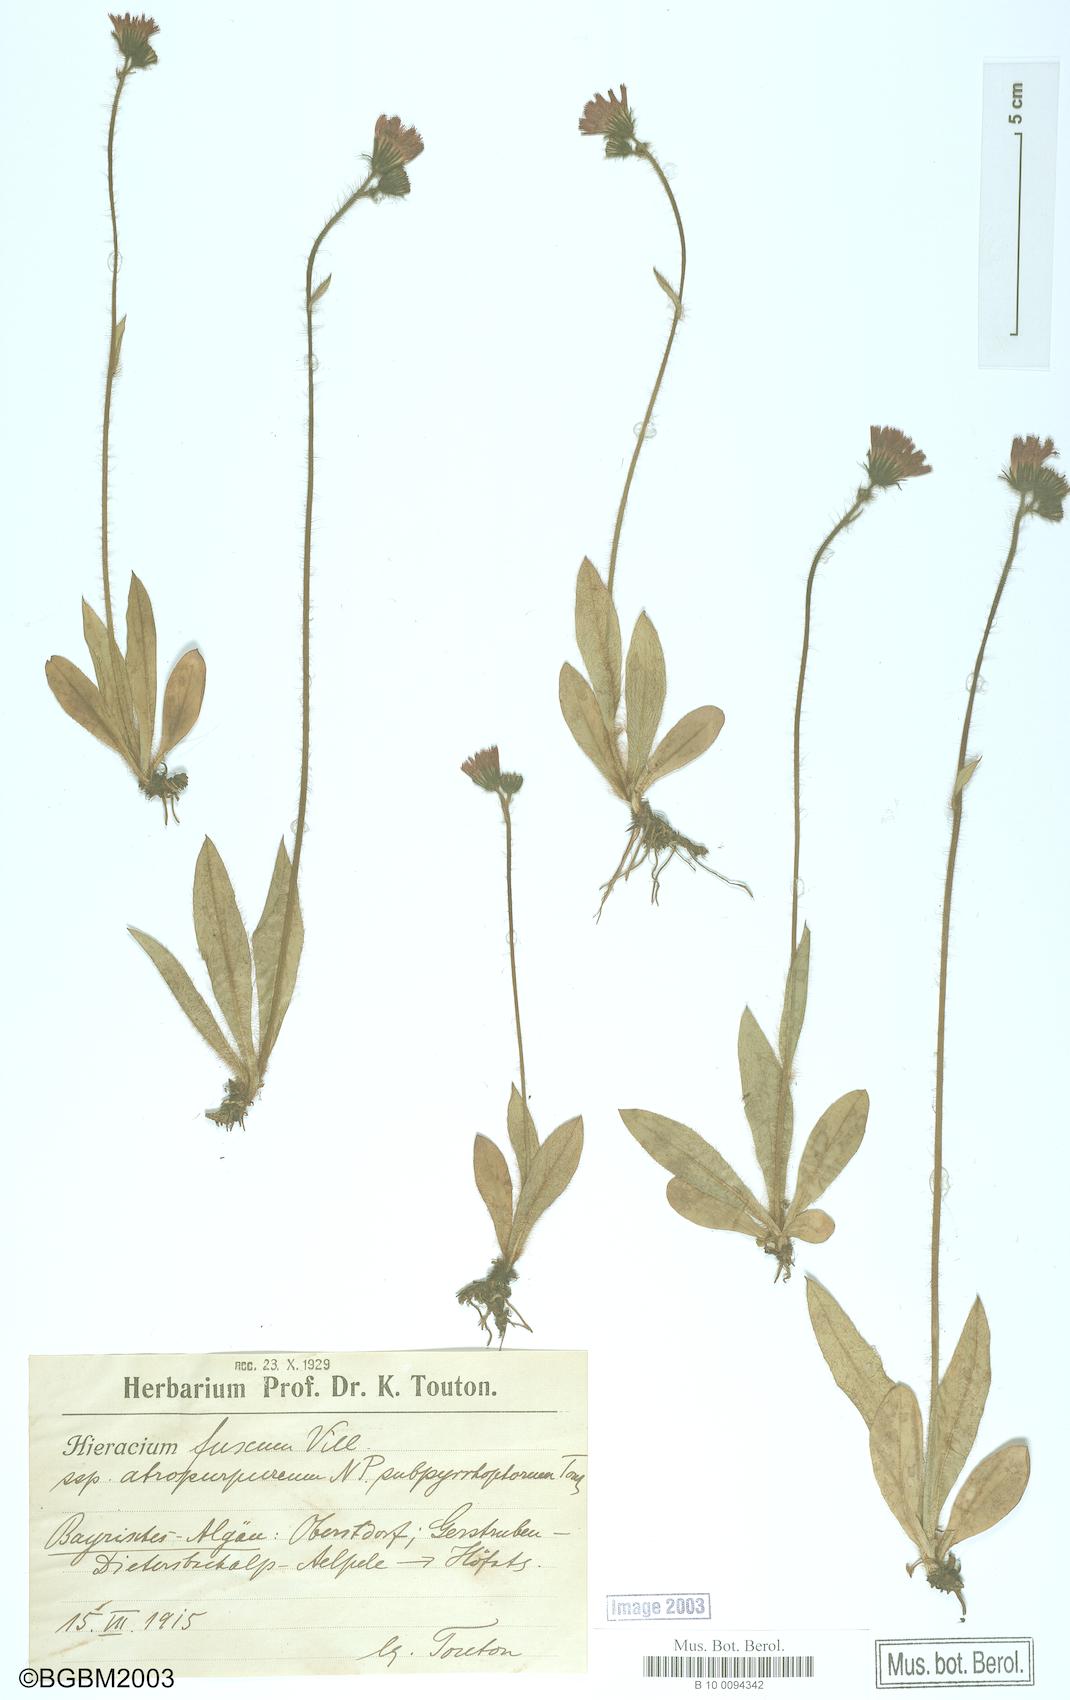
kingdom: Plantae
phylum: Tracheophyta
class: Magnoliopsida
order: Asterales
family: Asteraceae
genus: Hieracium
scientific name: Hieracium fuscum
